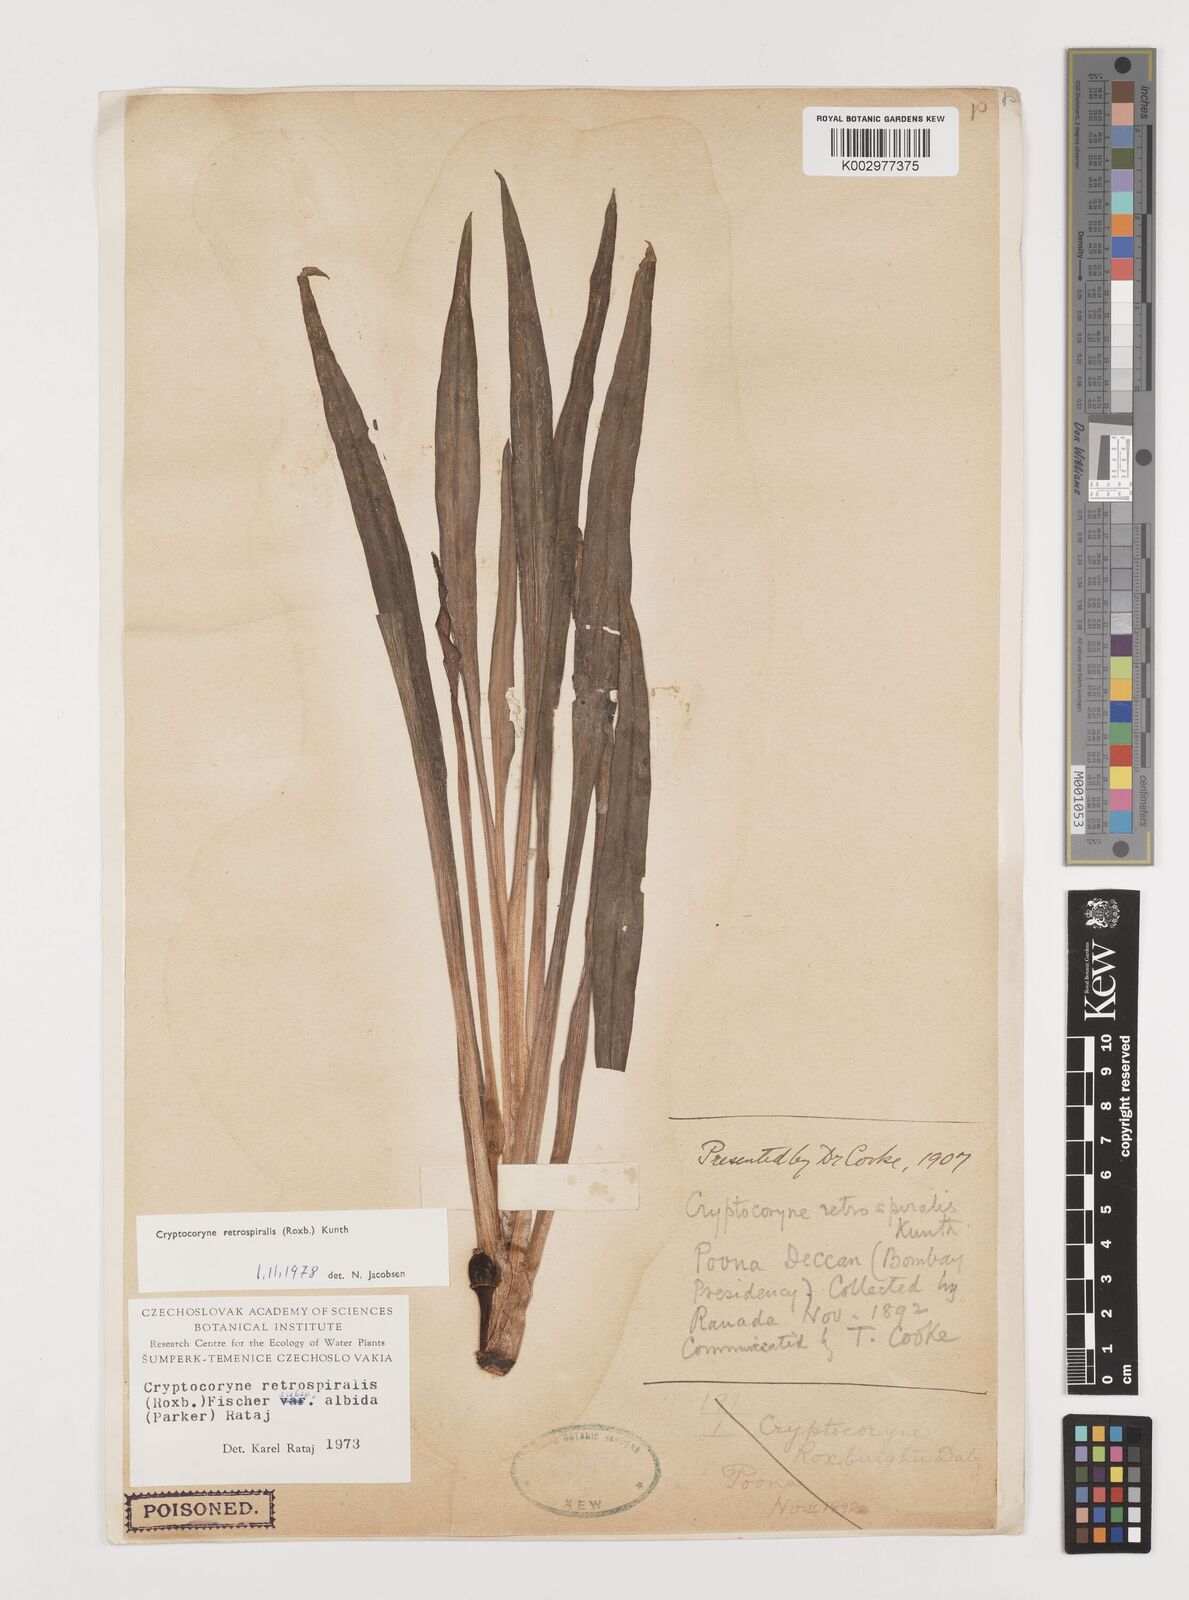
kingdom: Plantae
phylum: Tracheophyta
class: Liliopsida
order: Alismatales
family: Araceae
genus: Cryptocoryne
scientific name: Cryptocoryne retrospiralis
